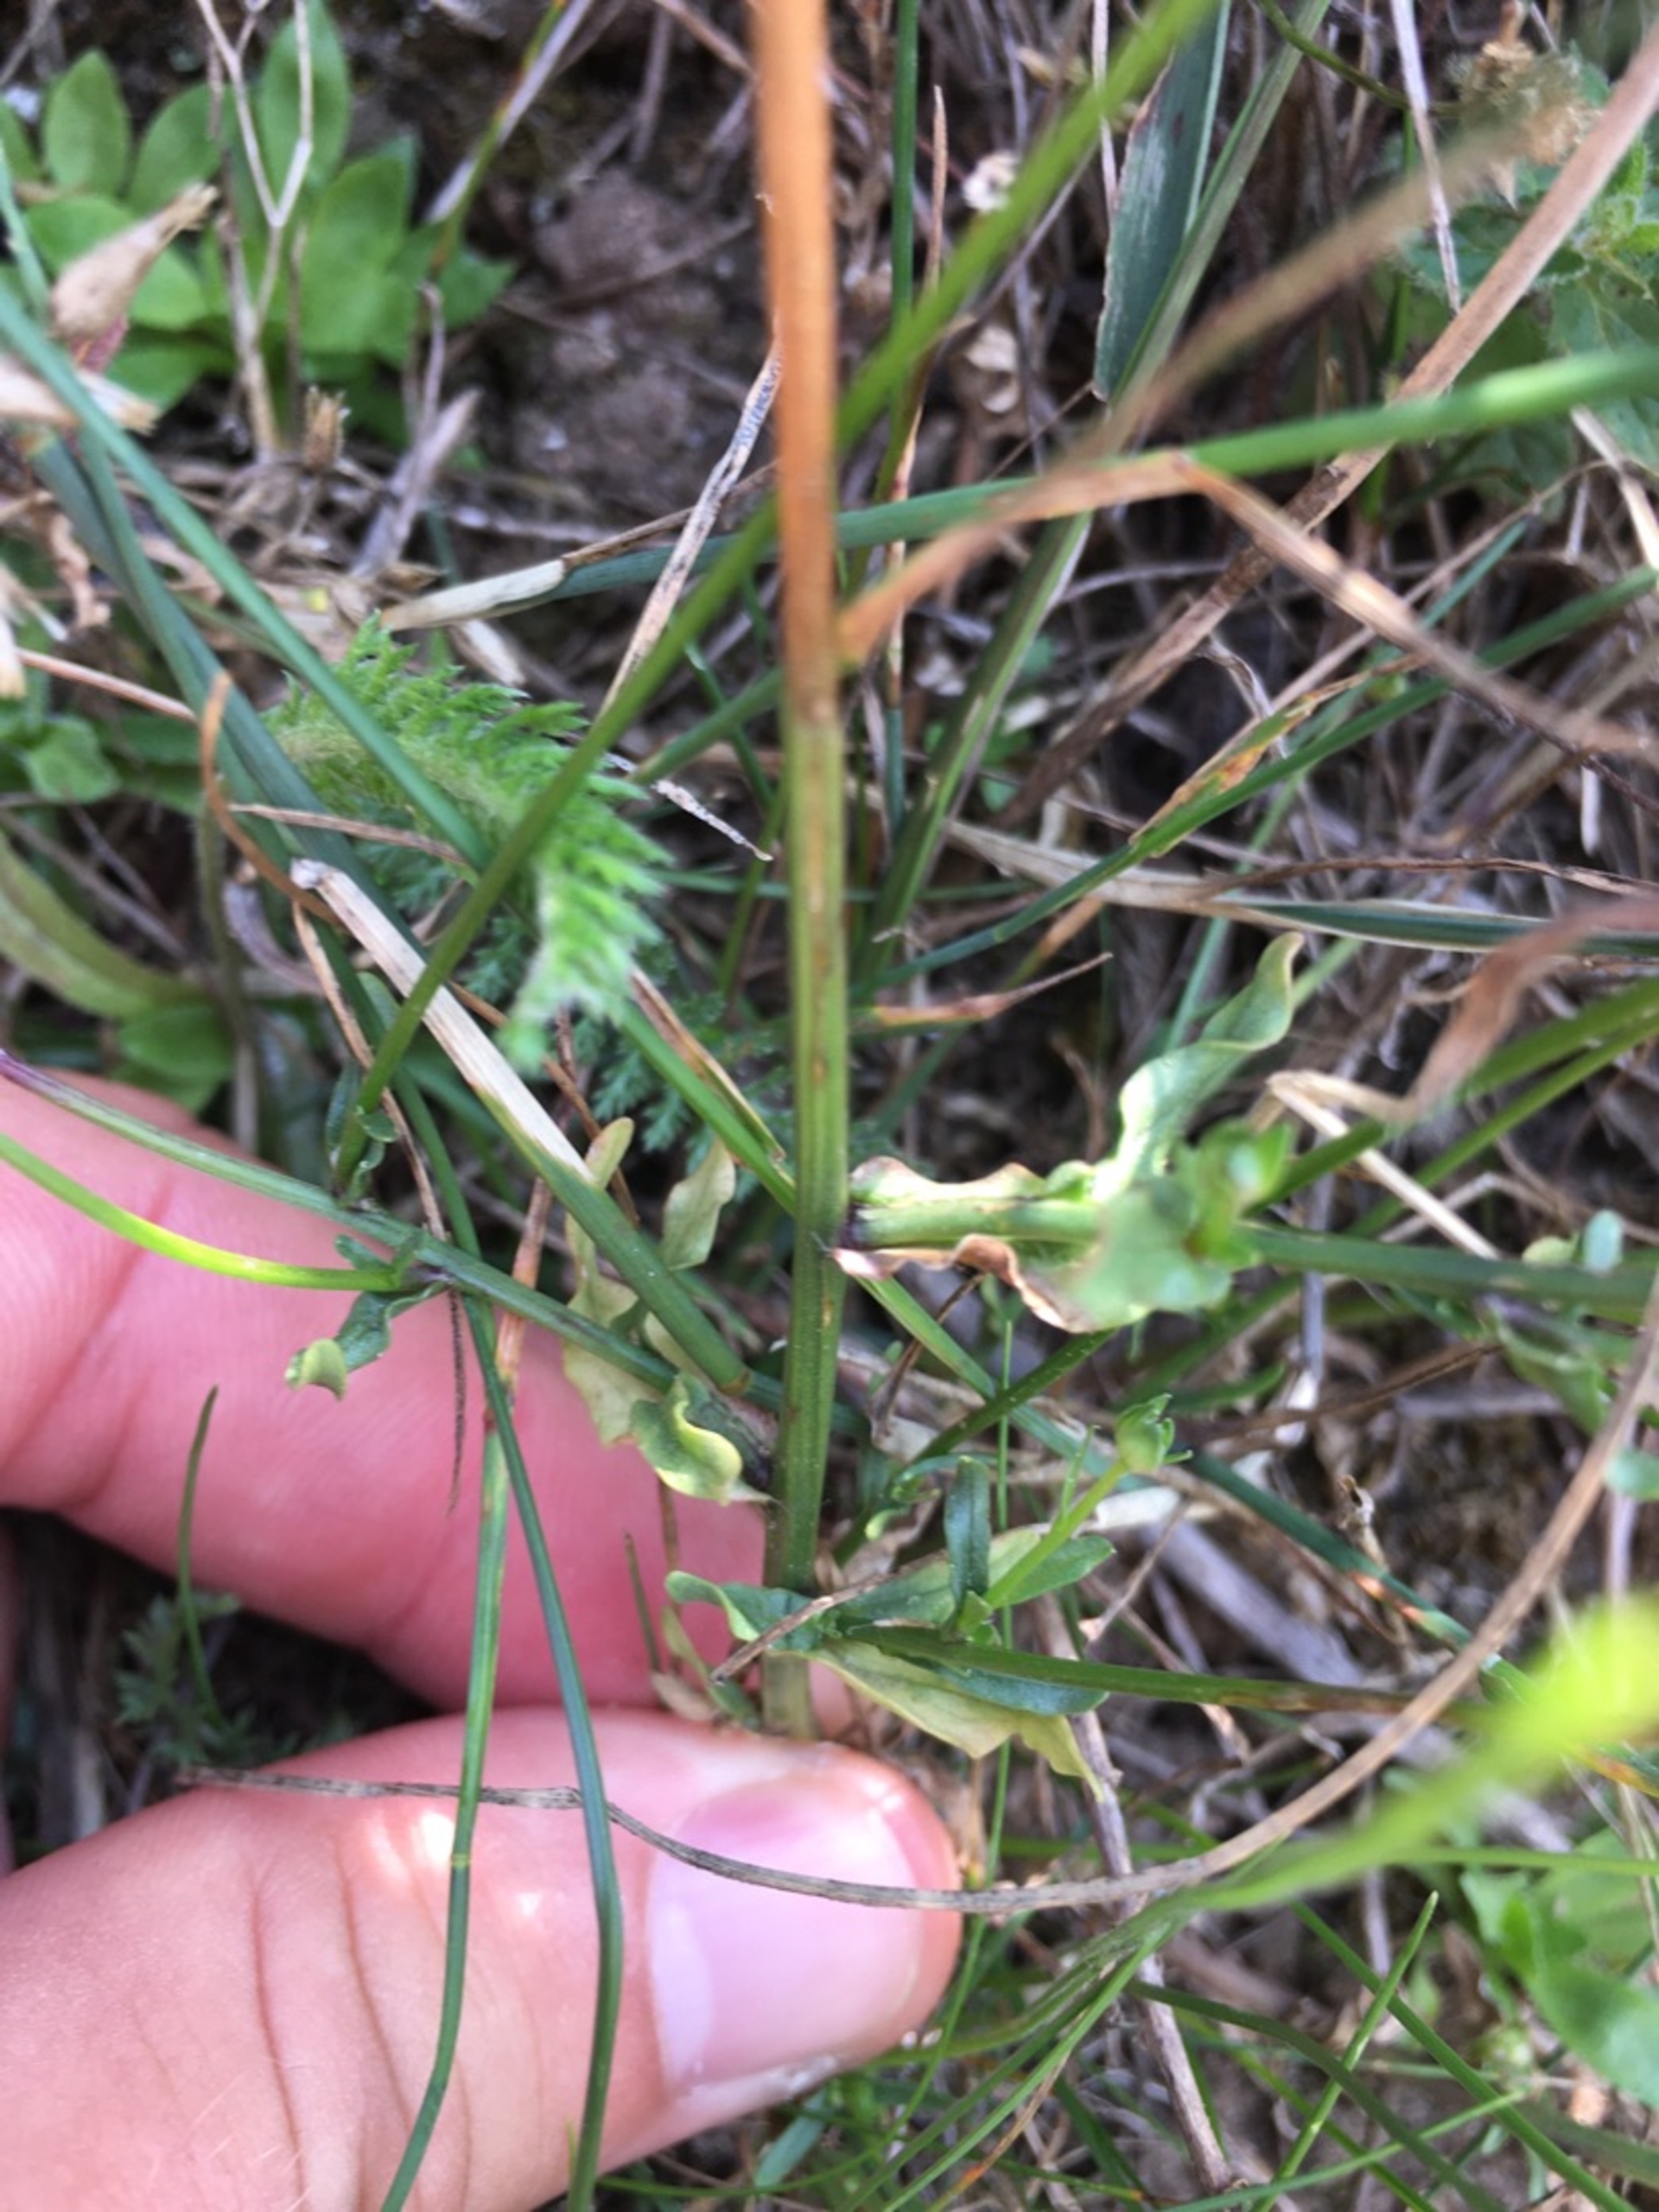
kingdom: Plantae
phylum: Tracheophyta
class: Magnoliopsida
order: Asterales
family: Campanulaceae
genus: Jasione
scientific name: Jasione montana
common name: Blåmunke
